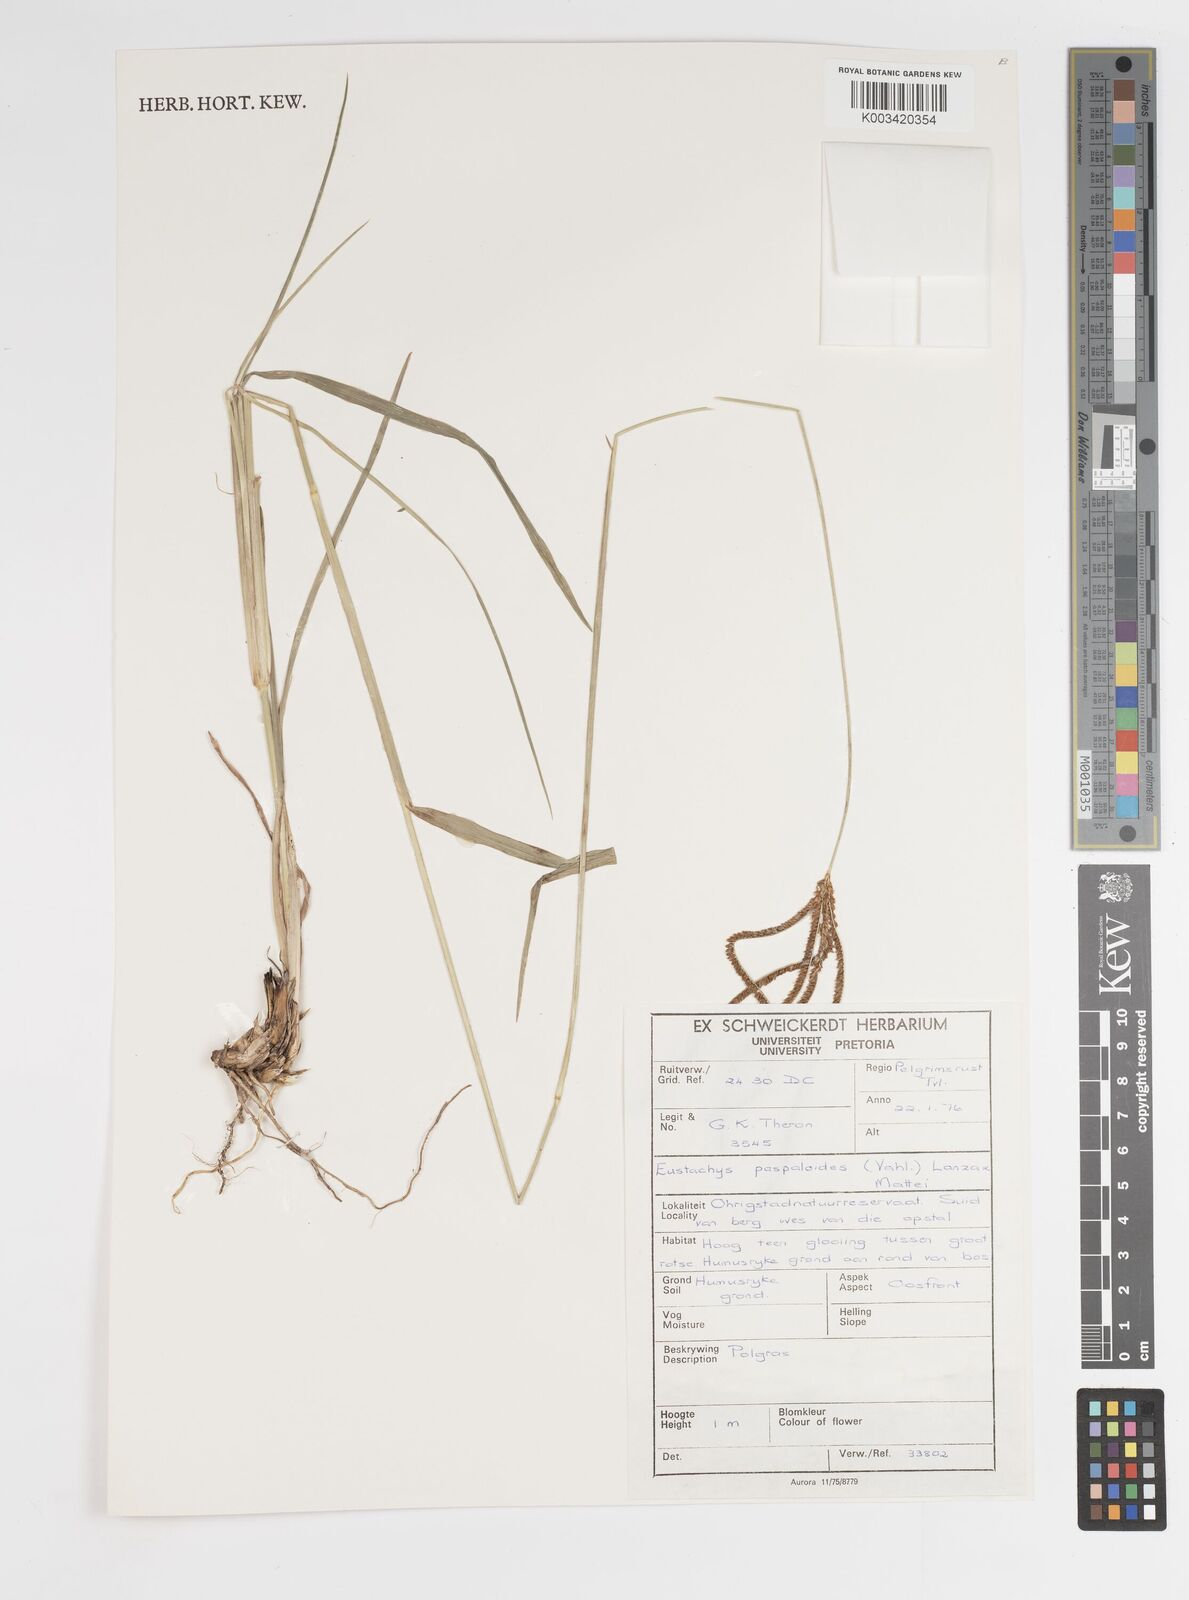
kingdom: Plantae
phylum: Tracheophyta
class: Liliopsida
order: Poales
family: Poaceae
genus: Eustachys
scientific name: Eustachys paspaloides
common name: Caribbean fingergrass
